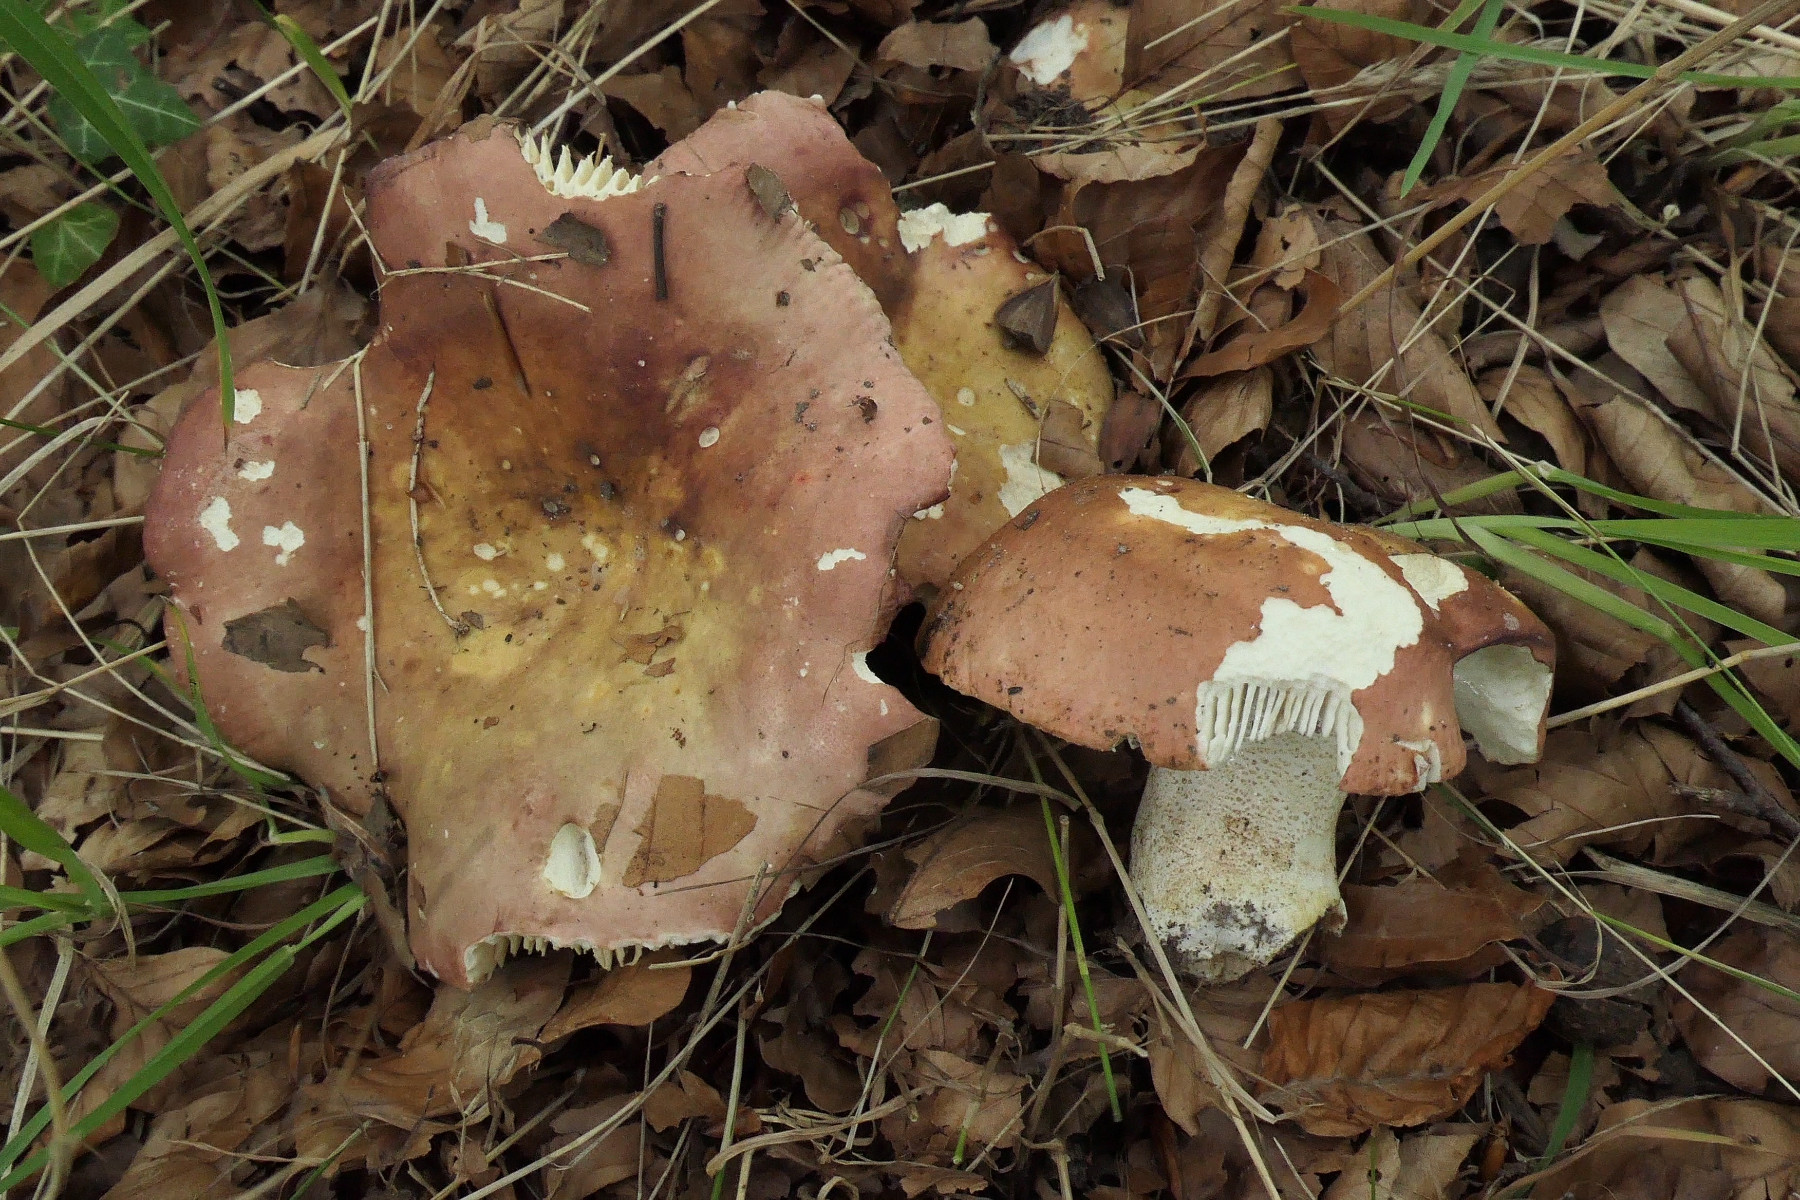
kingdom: Fungi
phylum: Basidiomycota
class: Agaricomycetes
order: Russulales
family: Russulaceae
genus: Russula
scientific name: Russula faginea
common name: bøge-skørhat
